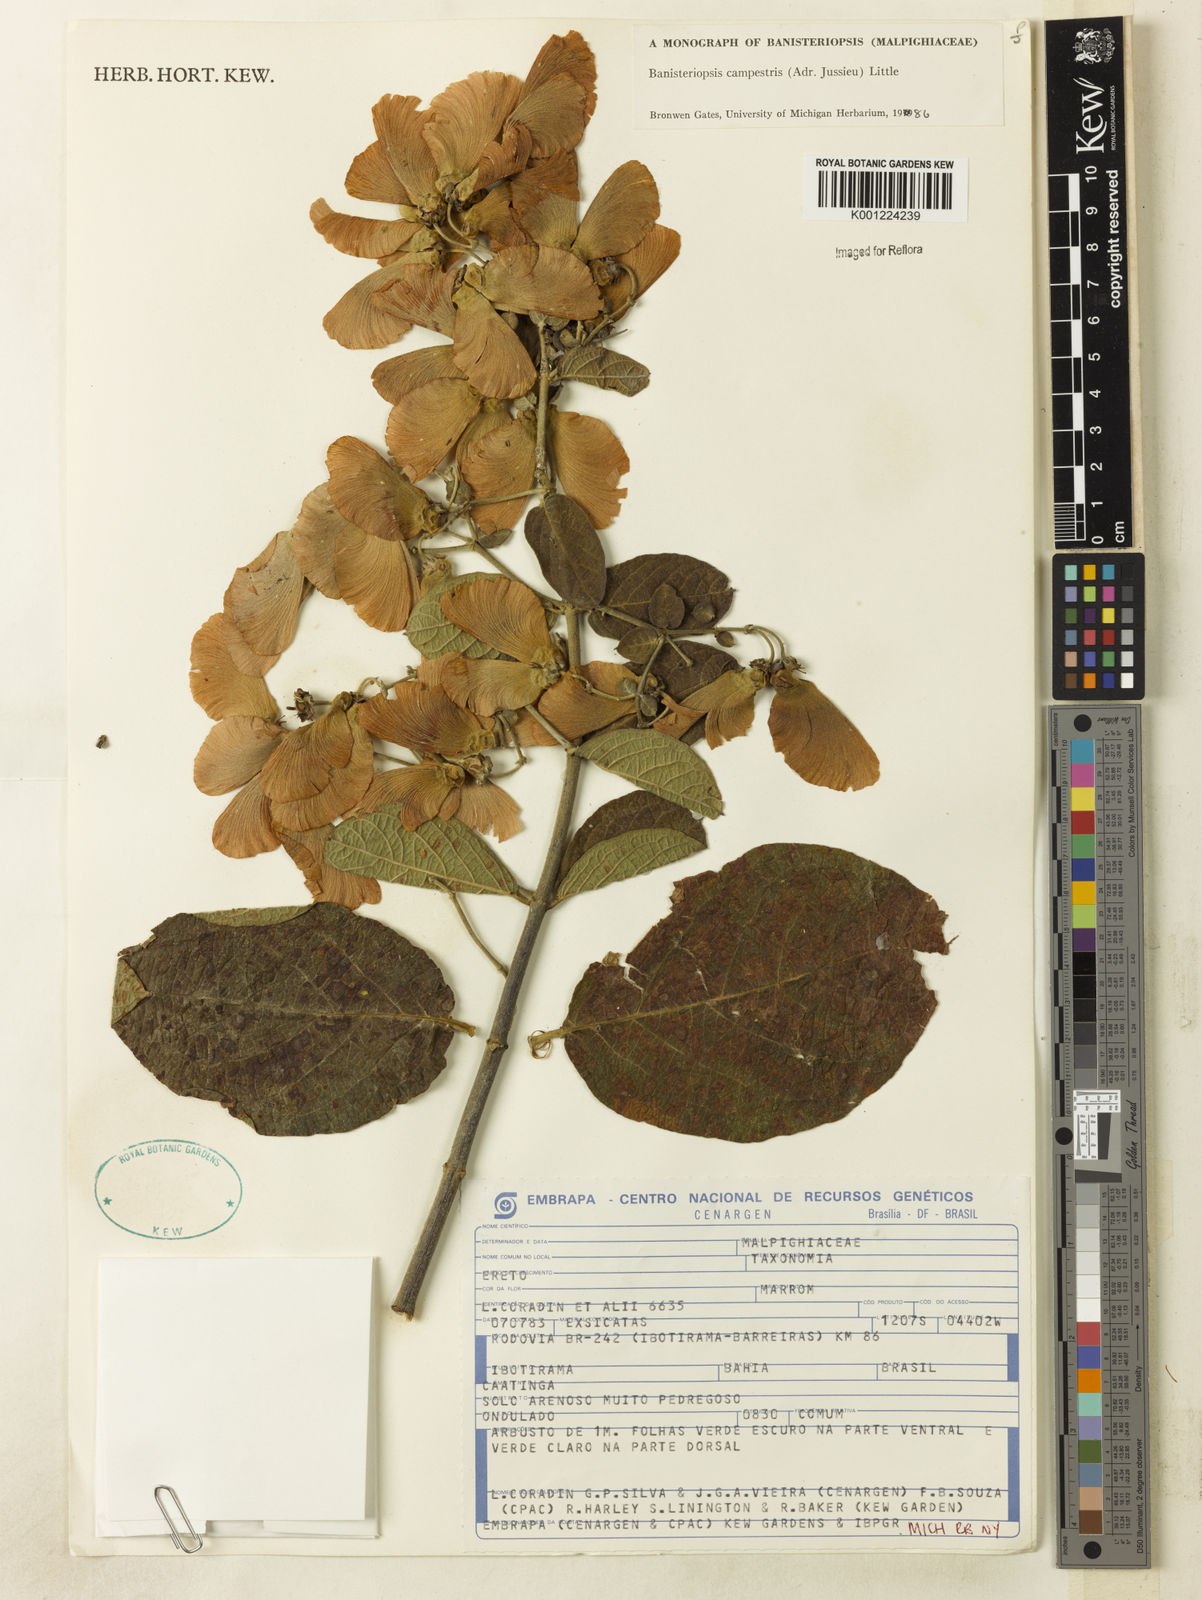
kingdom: Plantae
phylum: Tracheophyta
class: Magnoliopsida
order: Malpighiales
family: Malpighiaceae
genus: Banisteriopsis
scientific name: Banisteriopsis campestris
